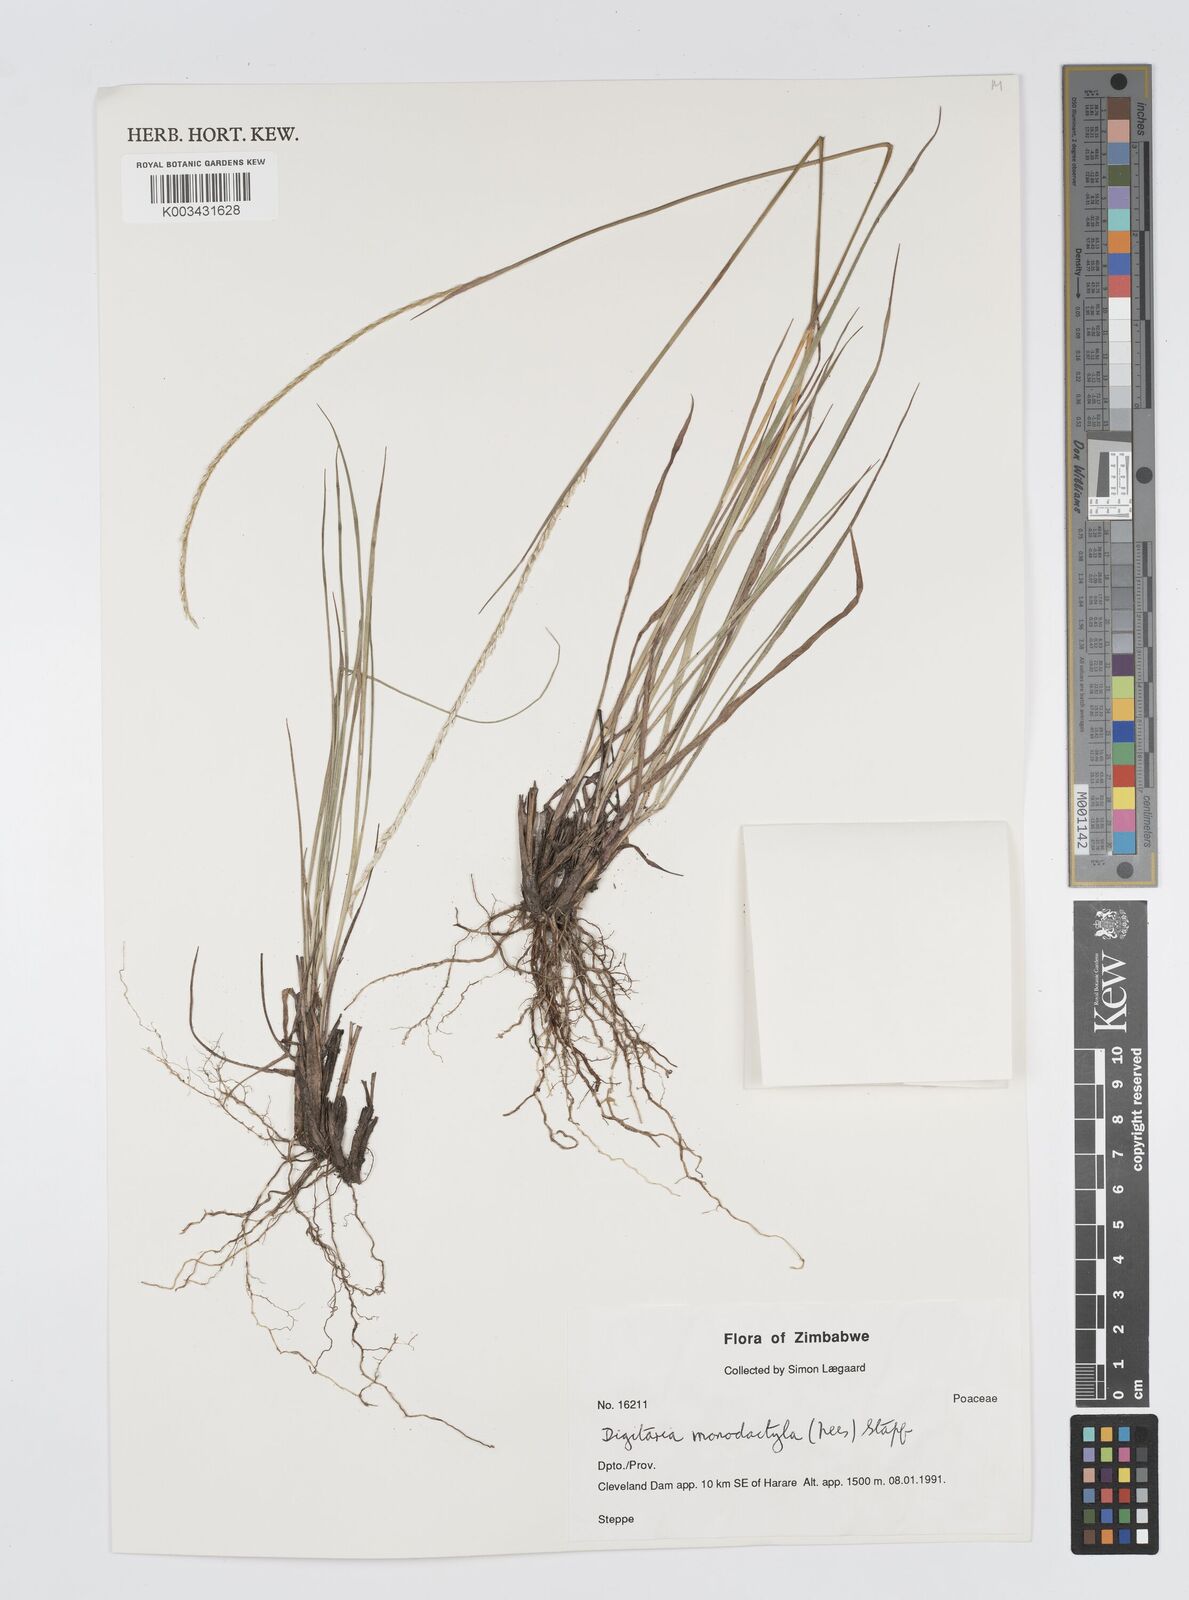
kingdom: Plantae
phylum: Tracheophyta
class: Liliopsida
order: Poales
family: Poaceae
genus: Digitaria
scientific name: Digitaria monodactyla
